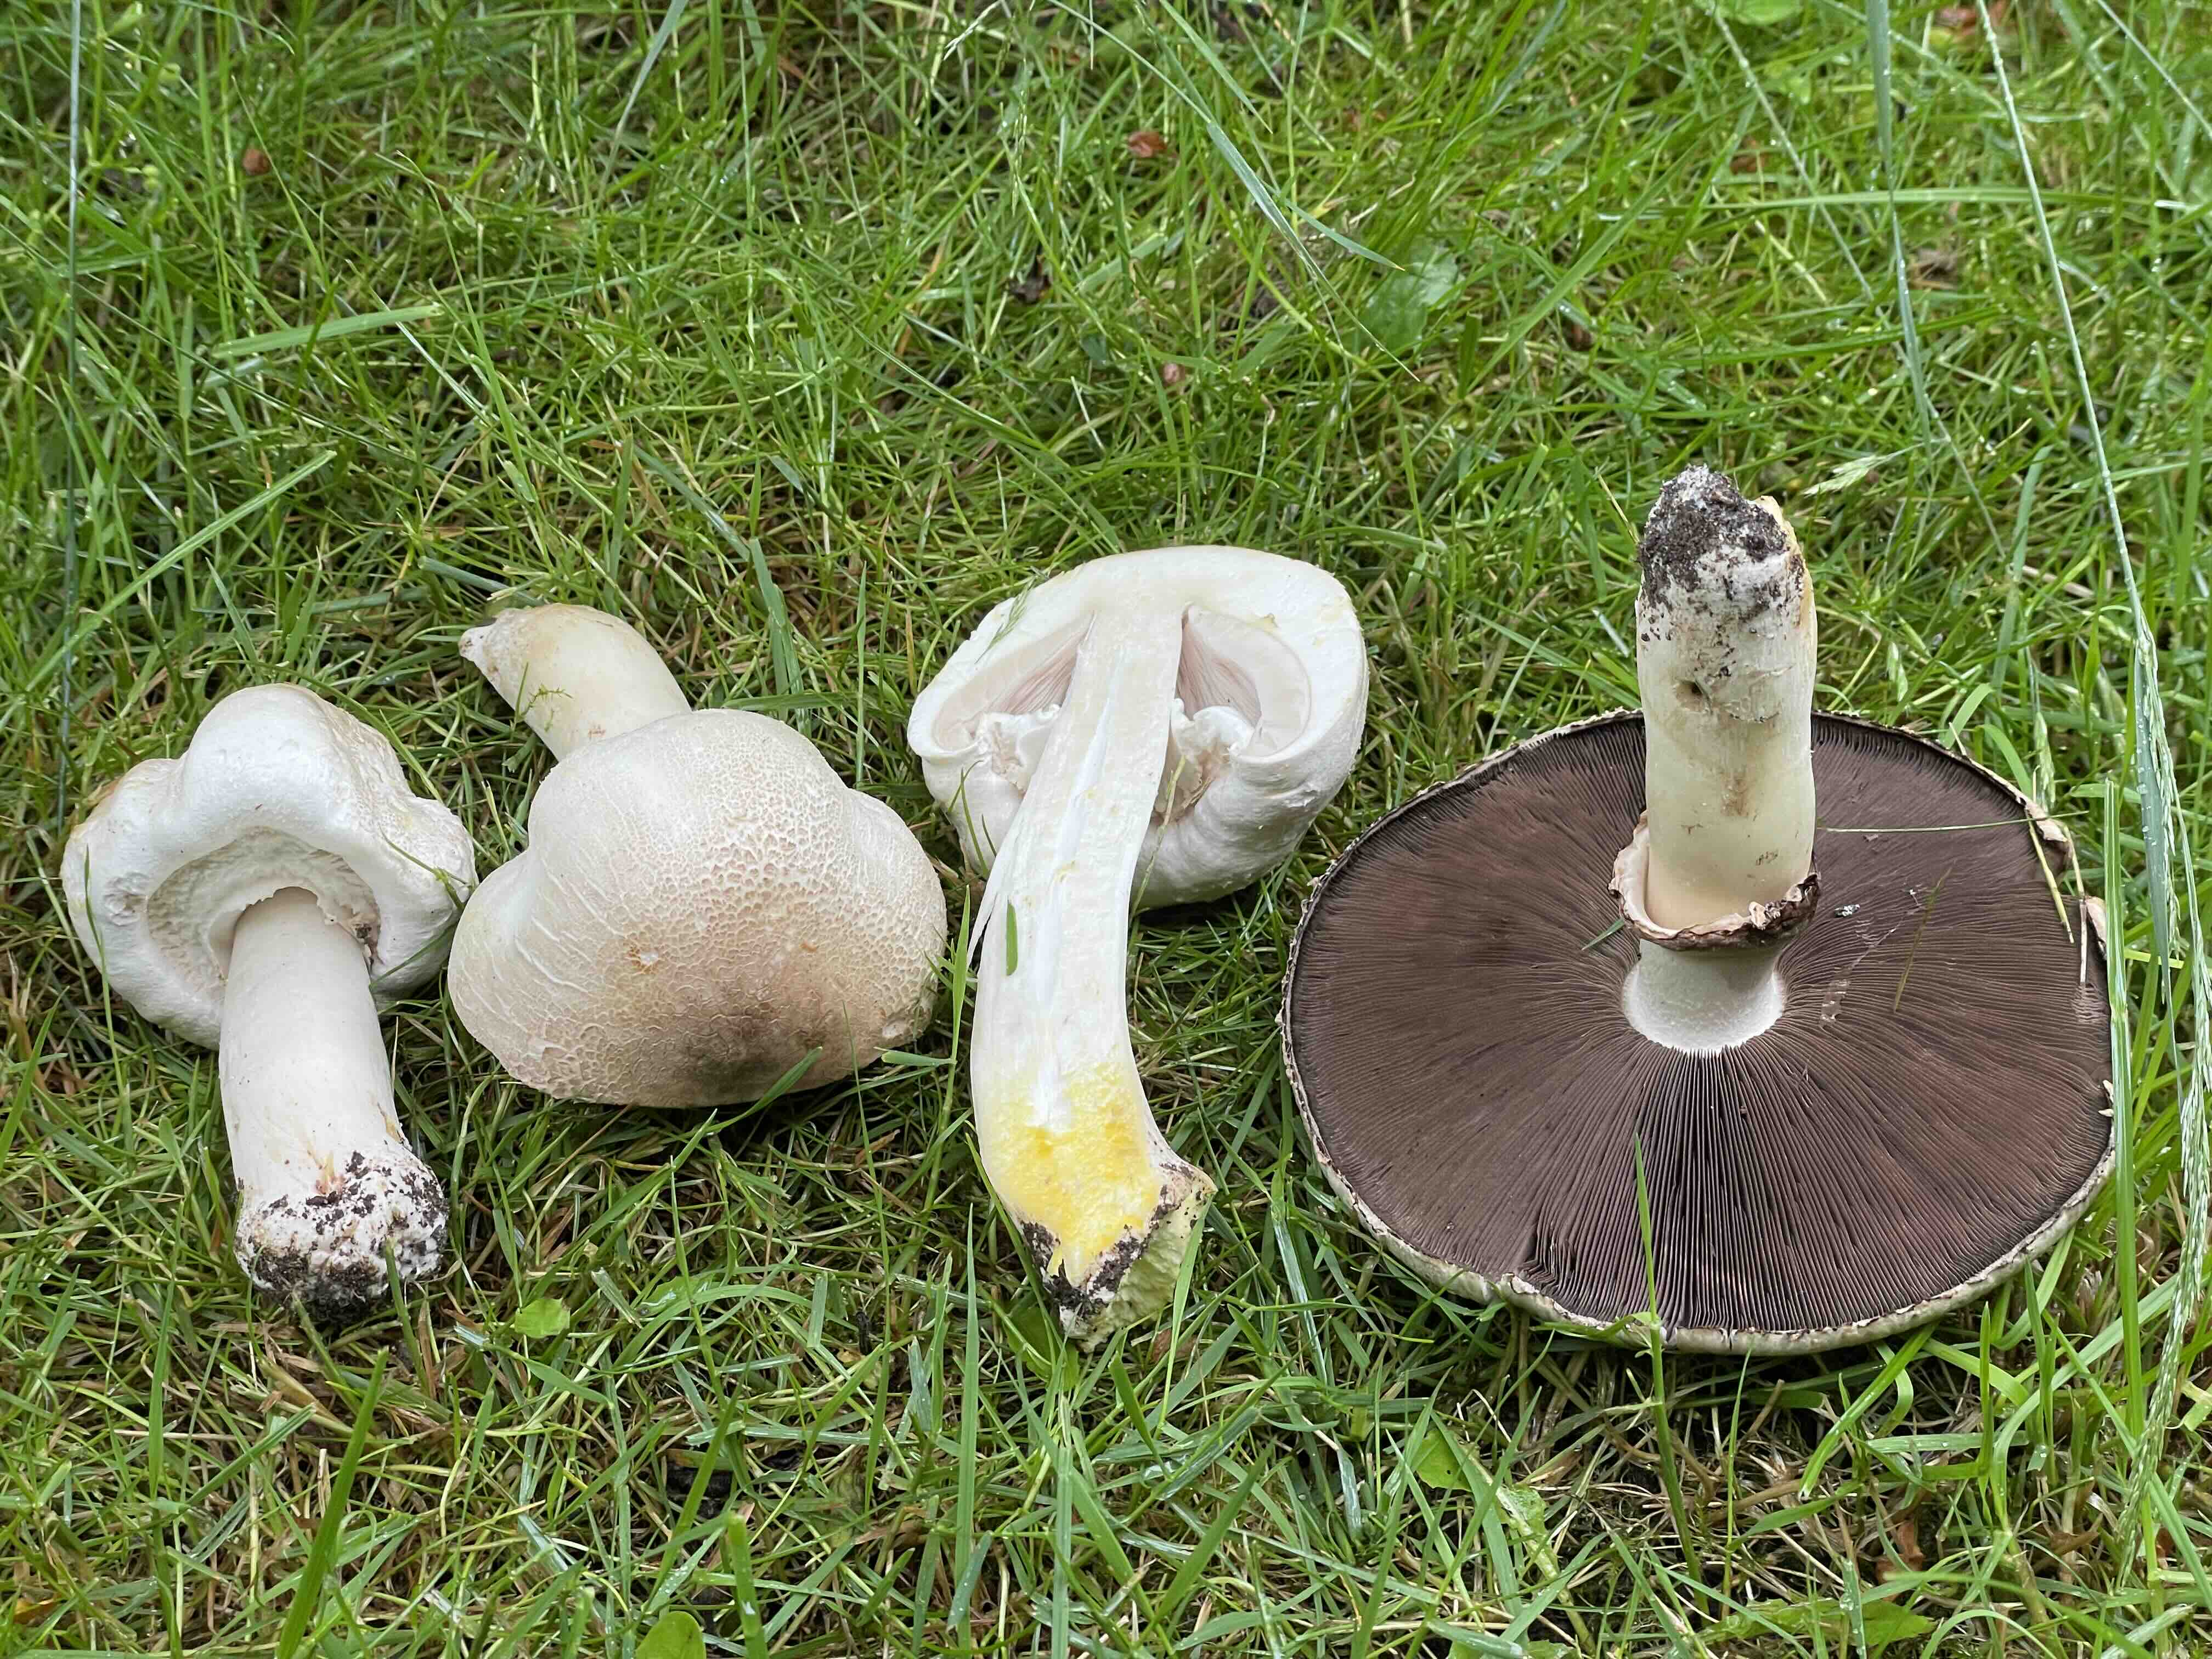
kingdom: Fungi
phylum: Basidiomycota
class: Agaricomycetes
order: Agaricales
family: Agaricaceae
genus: Agaricus
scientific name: Agaricus xanthodermus
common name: karbol-champignon
